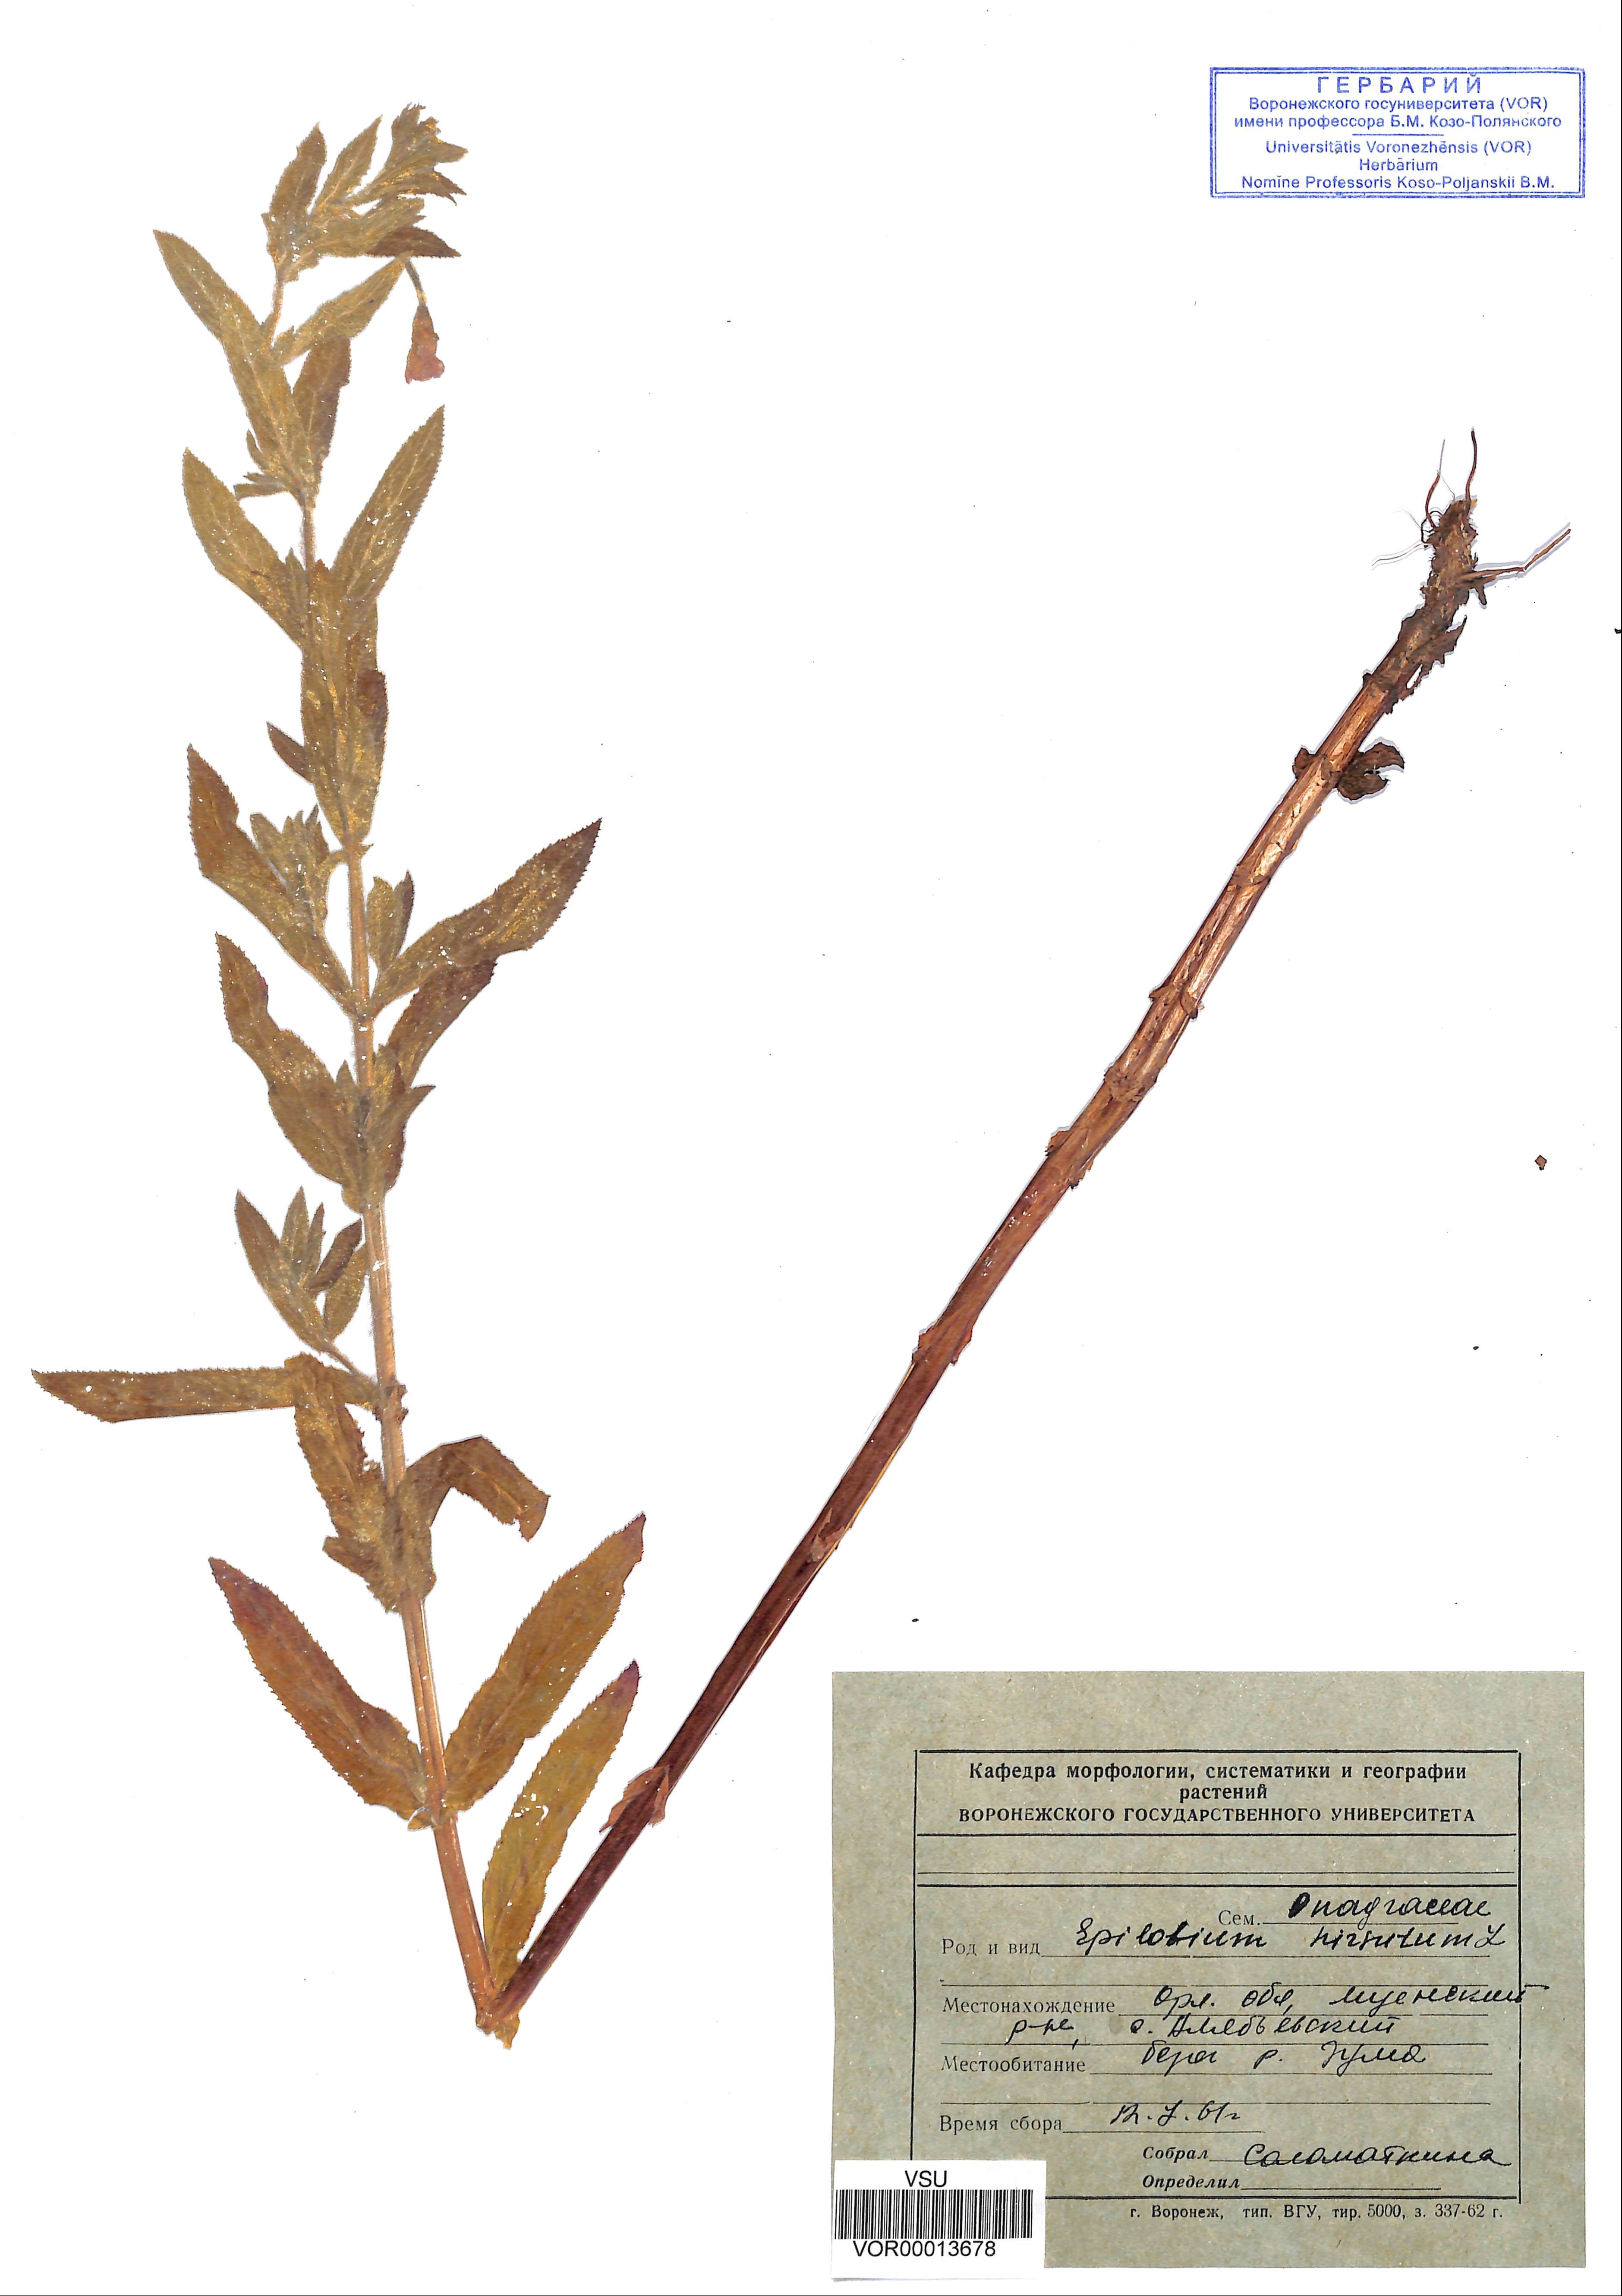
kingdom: Plantae
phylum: Tracheophyta
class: Magnoliopsida
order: Myrtales
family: Onagraceae
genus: Epilobium
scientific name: Epilobium hirsutum
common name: Great willowherb
